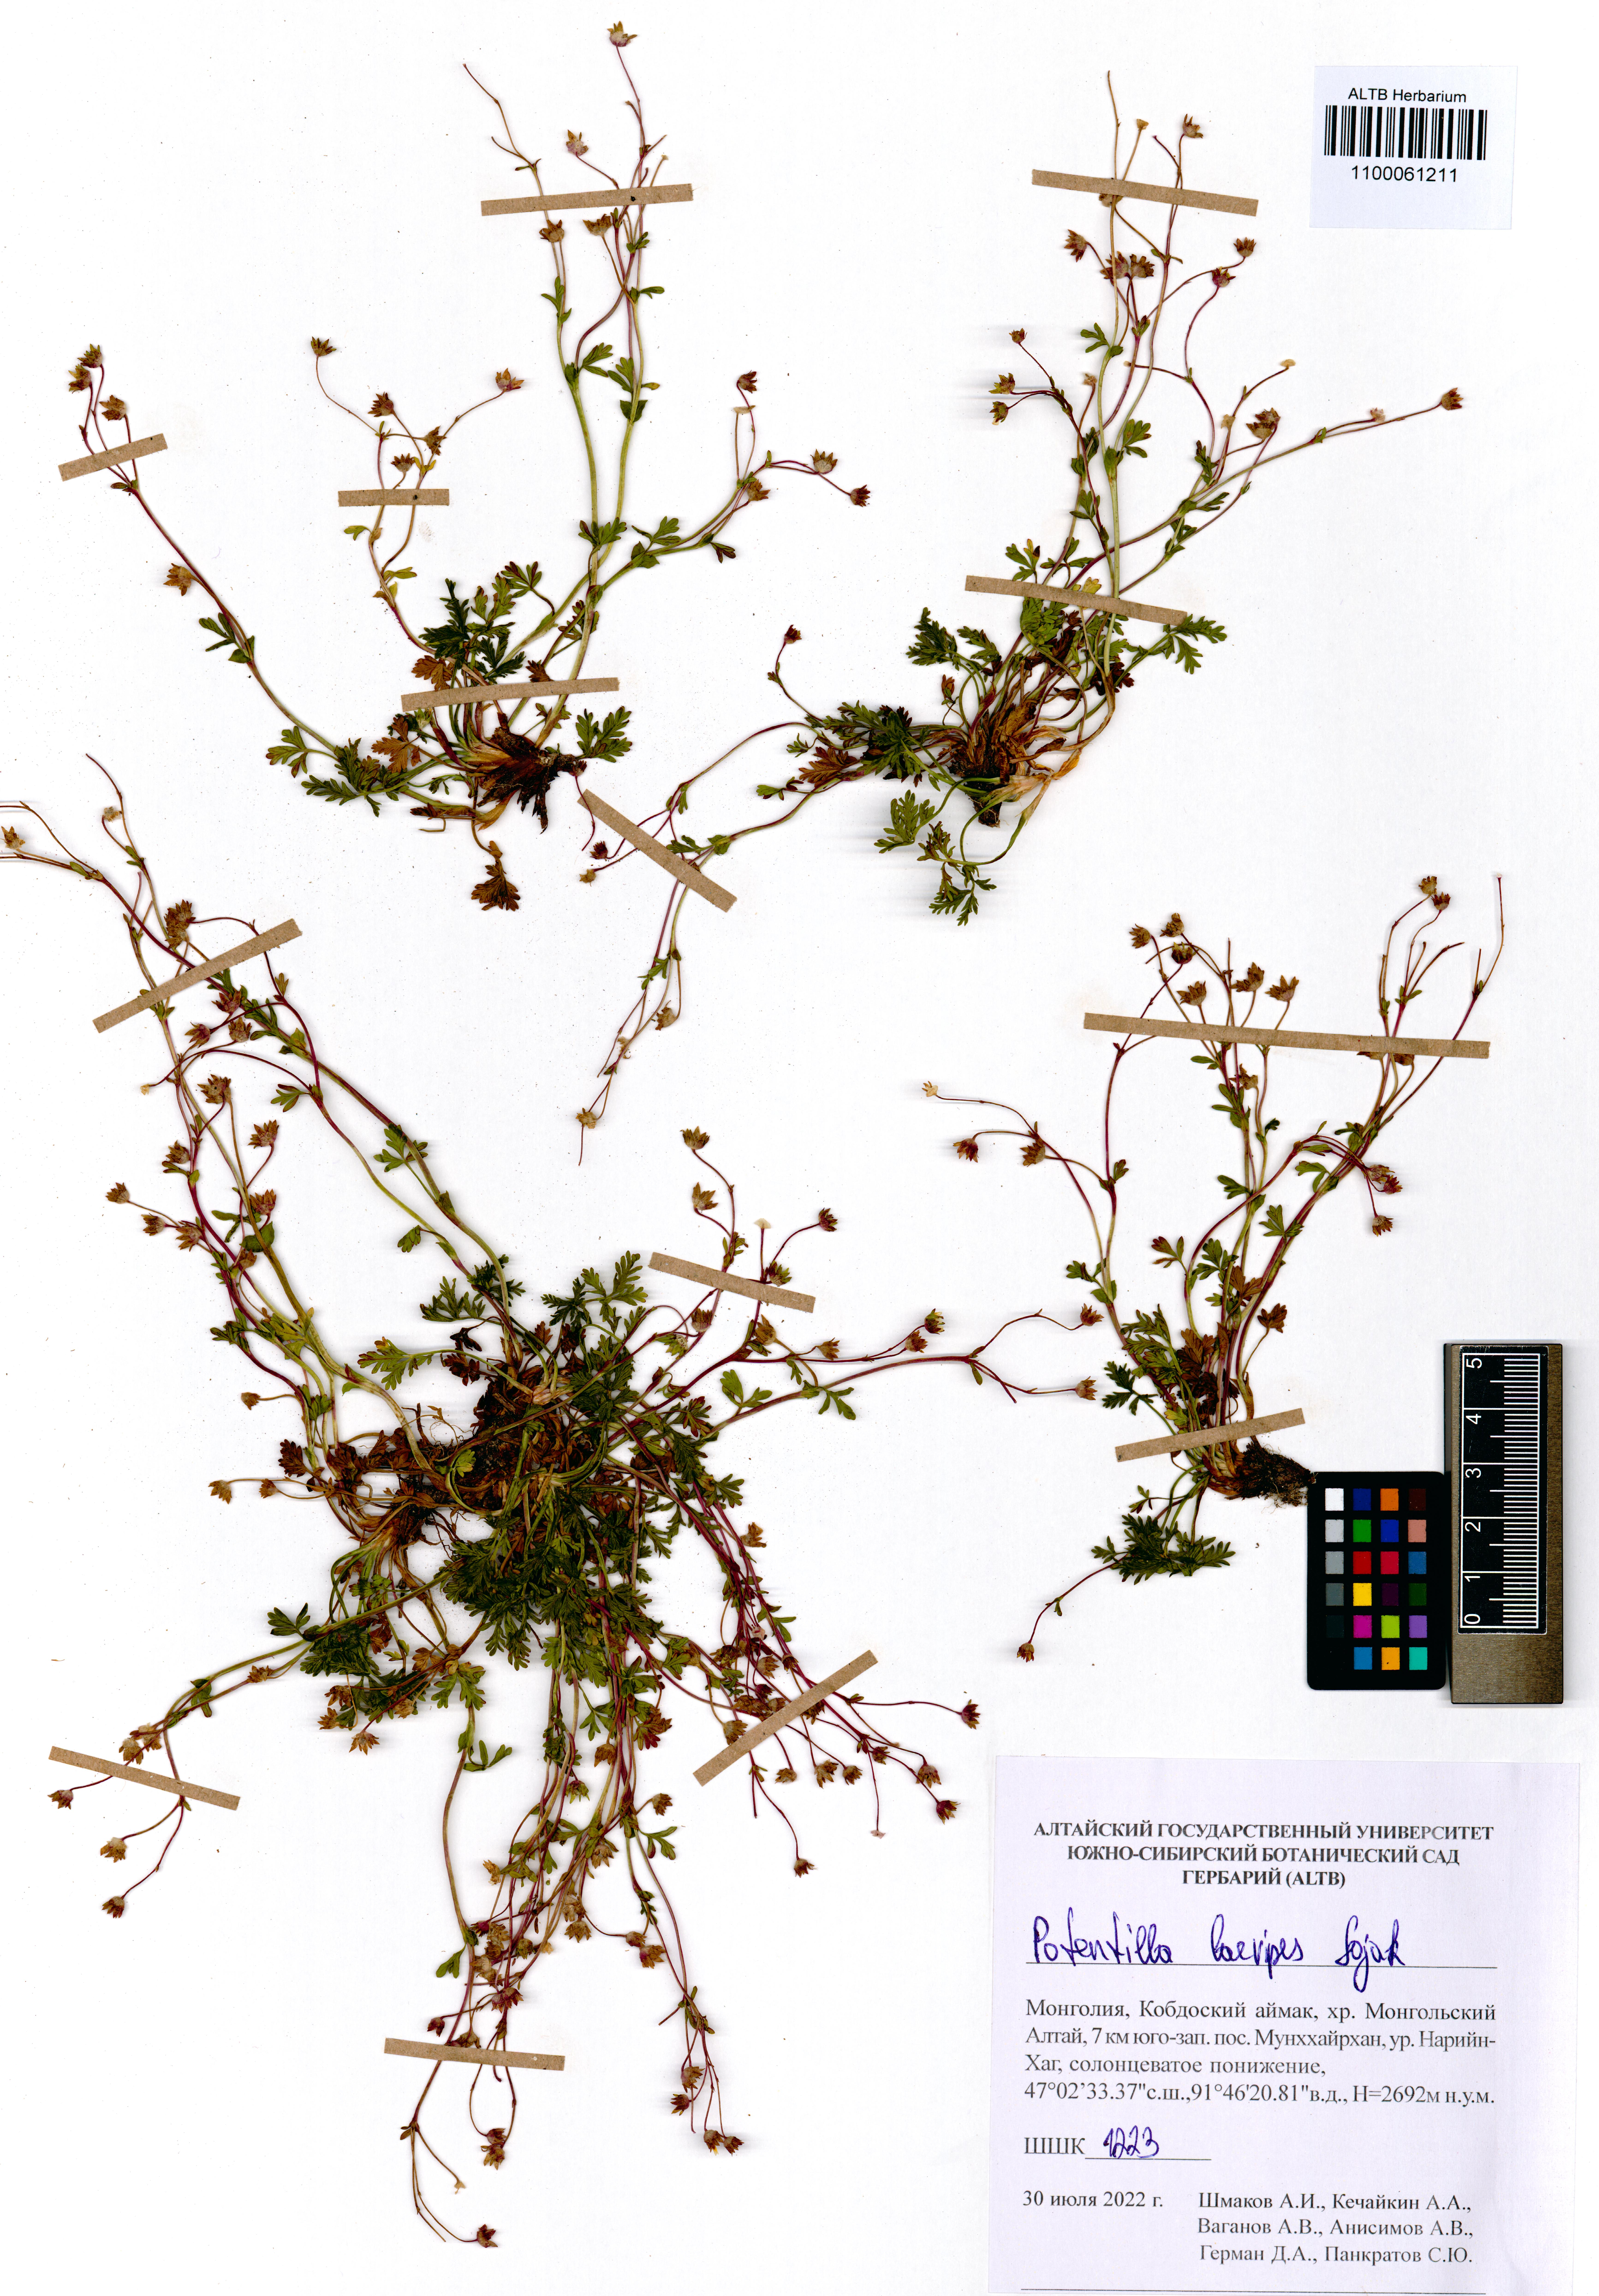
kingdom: Plantae
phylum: Tracheophyta
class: Magnoliopsida
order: Rosales
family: Rosaceae
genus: Potentilla
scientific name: Potentilla laevipes
